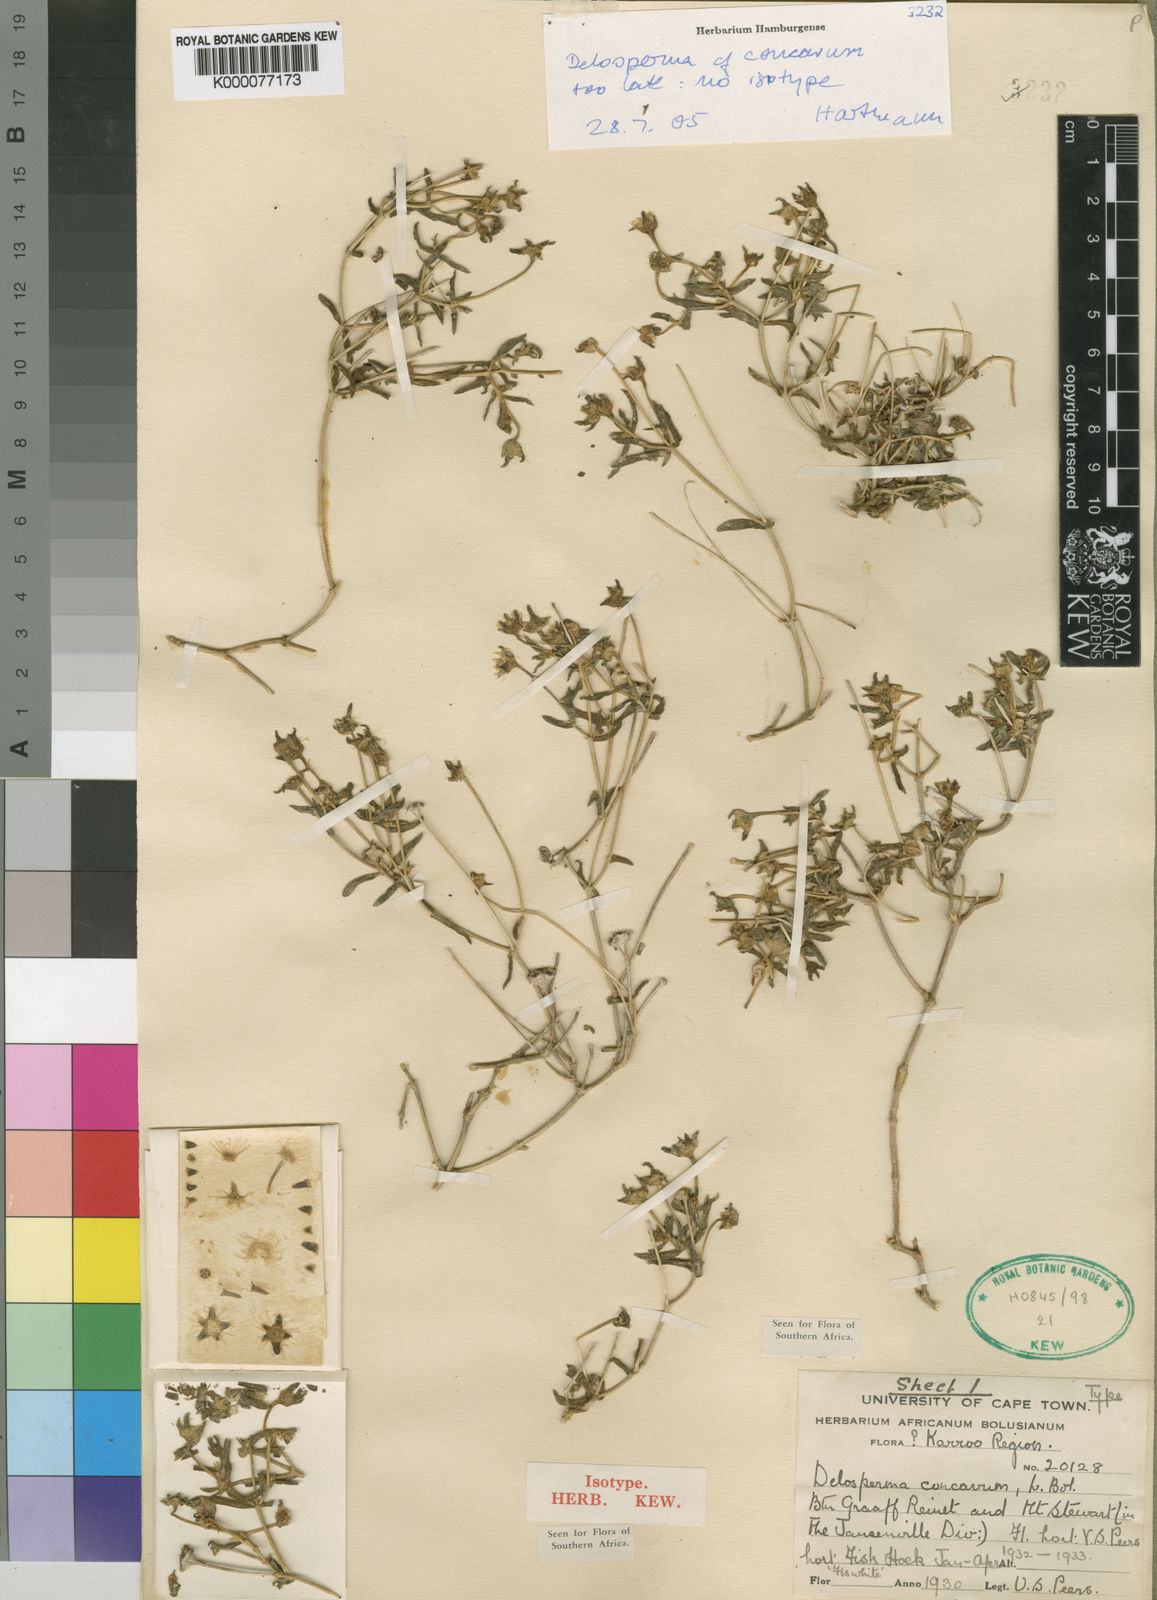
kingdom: Plantae
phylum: Tracheophyta
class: Magnoliopsida
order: Caryophyllales
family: Aizoaceae
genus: Delosperma
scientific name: Delosperma concavum
